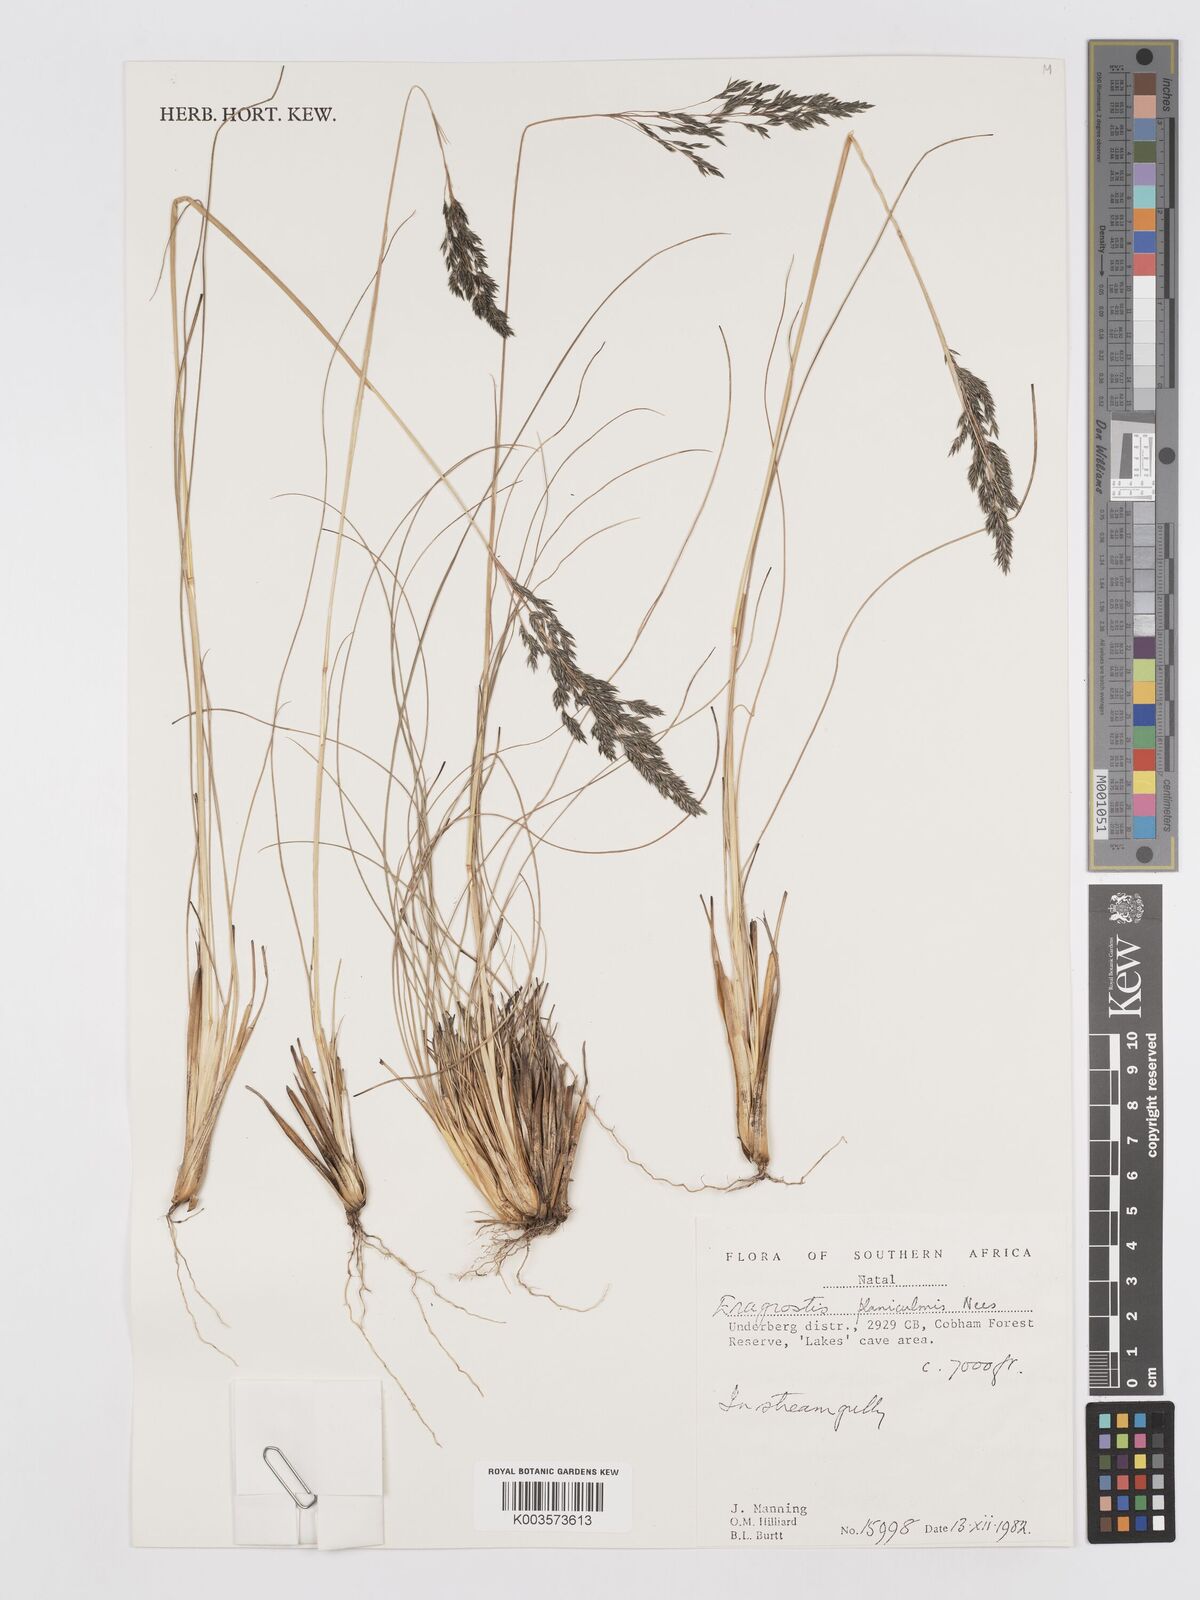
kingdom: Plantae
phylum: Tracheophyta
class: Liliopsida
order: Poales
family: Poaceae
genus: Eragrostis
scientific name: Eragrostis planiculmis
